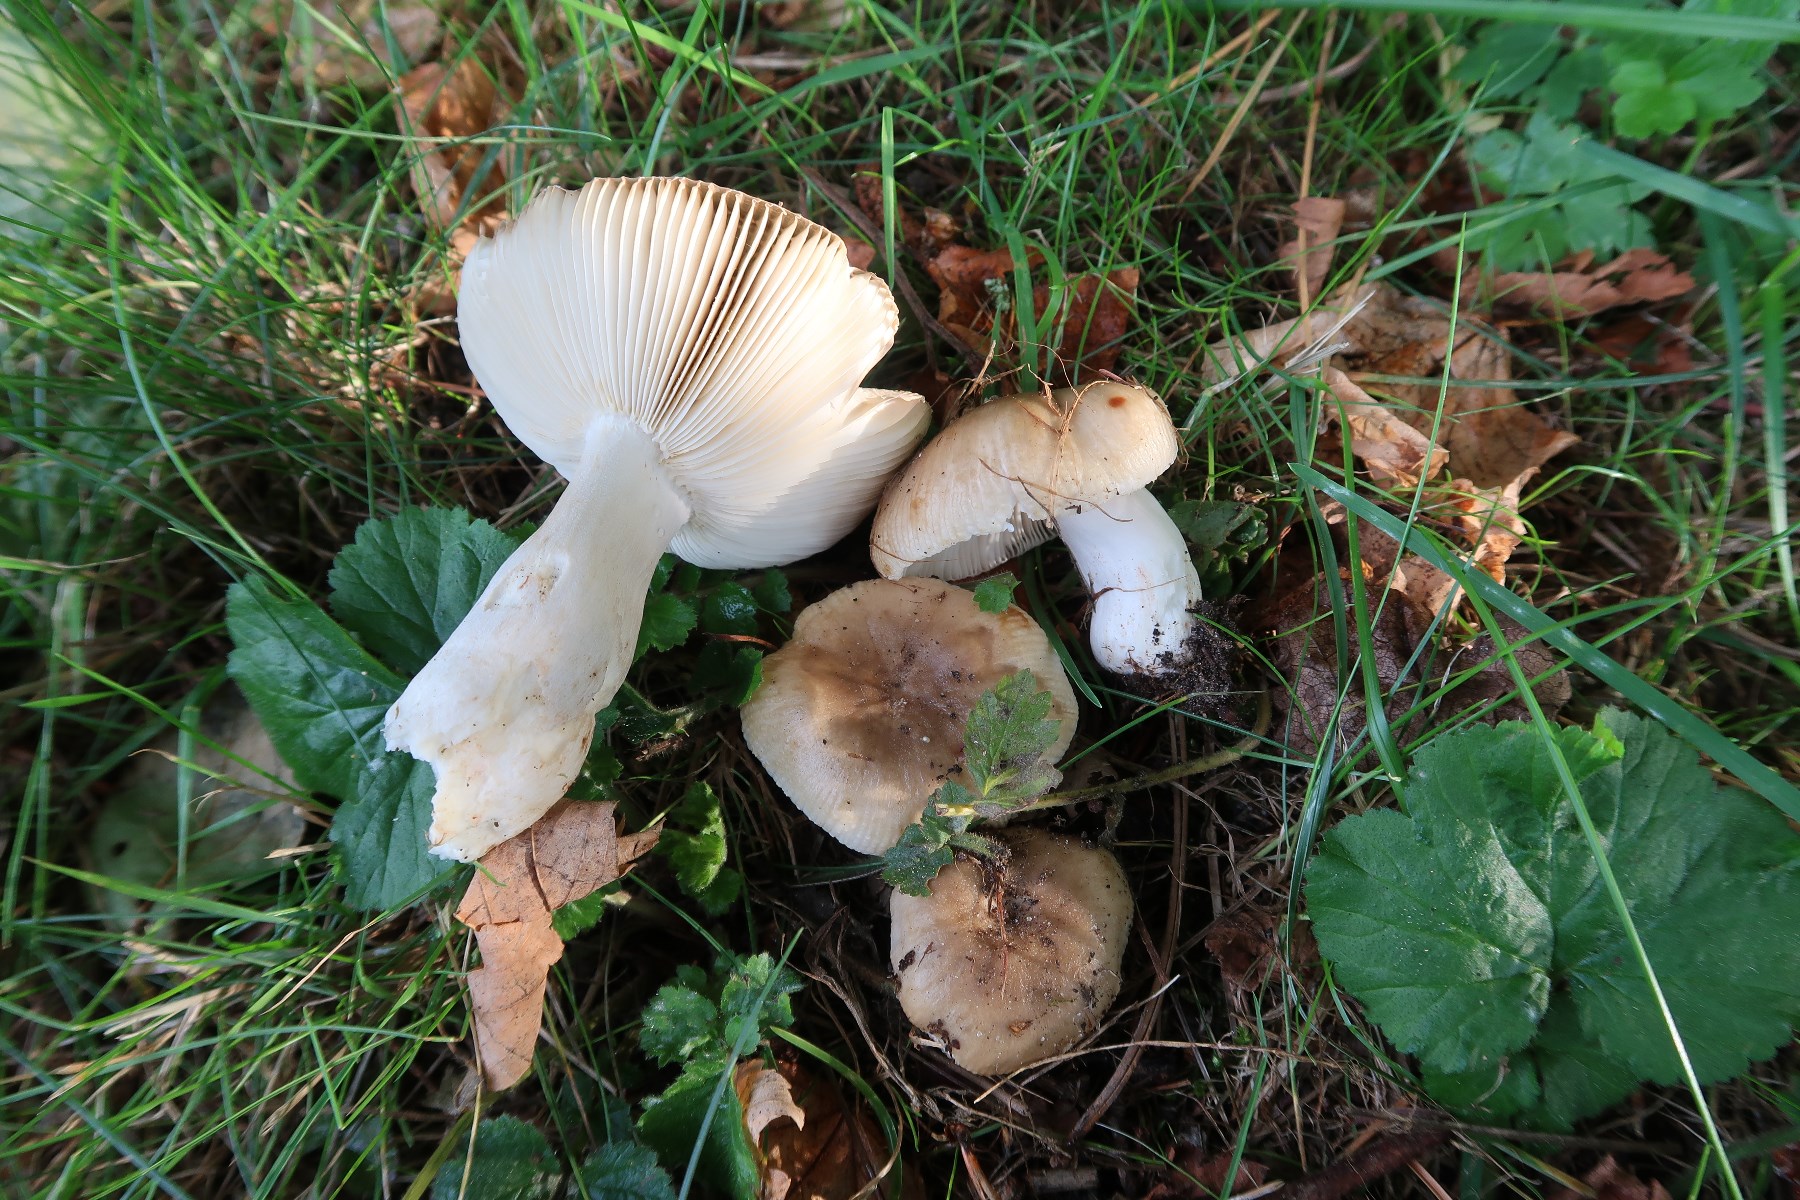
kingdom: Fungi
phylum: Basidiomycota
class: Agaricomycetes
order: Russulales
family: Russulaceae
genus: Russula
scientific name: Russula recondita
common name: mild kam-skørhat
